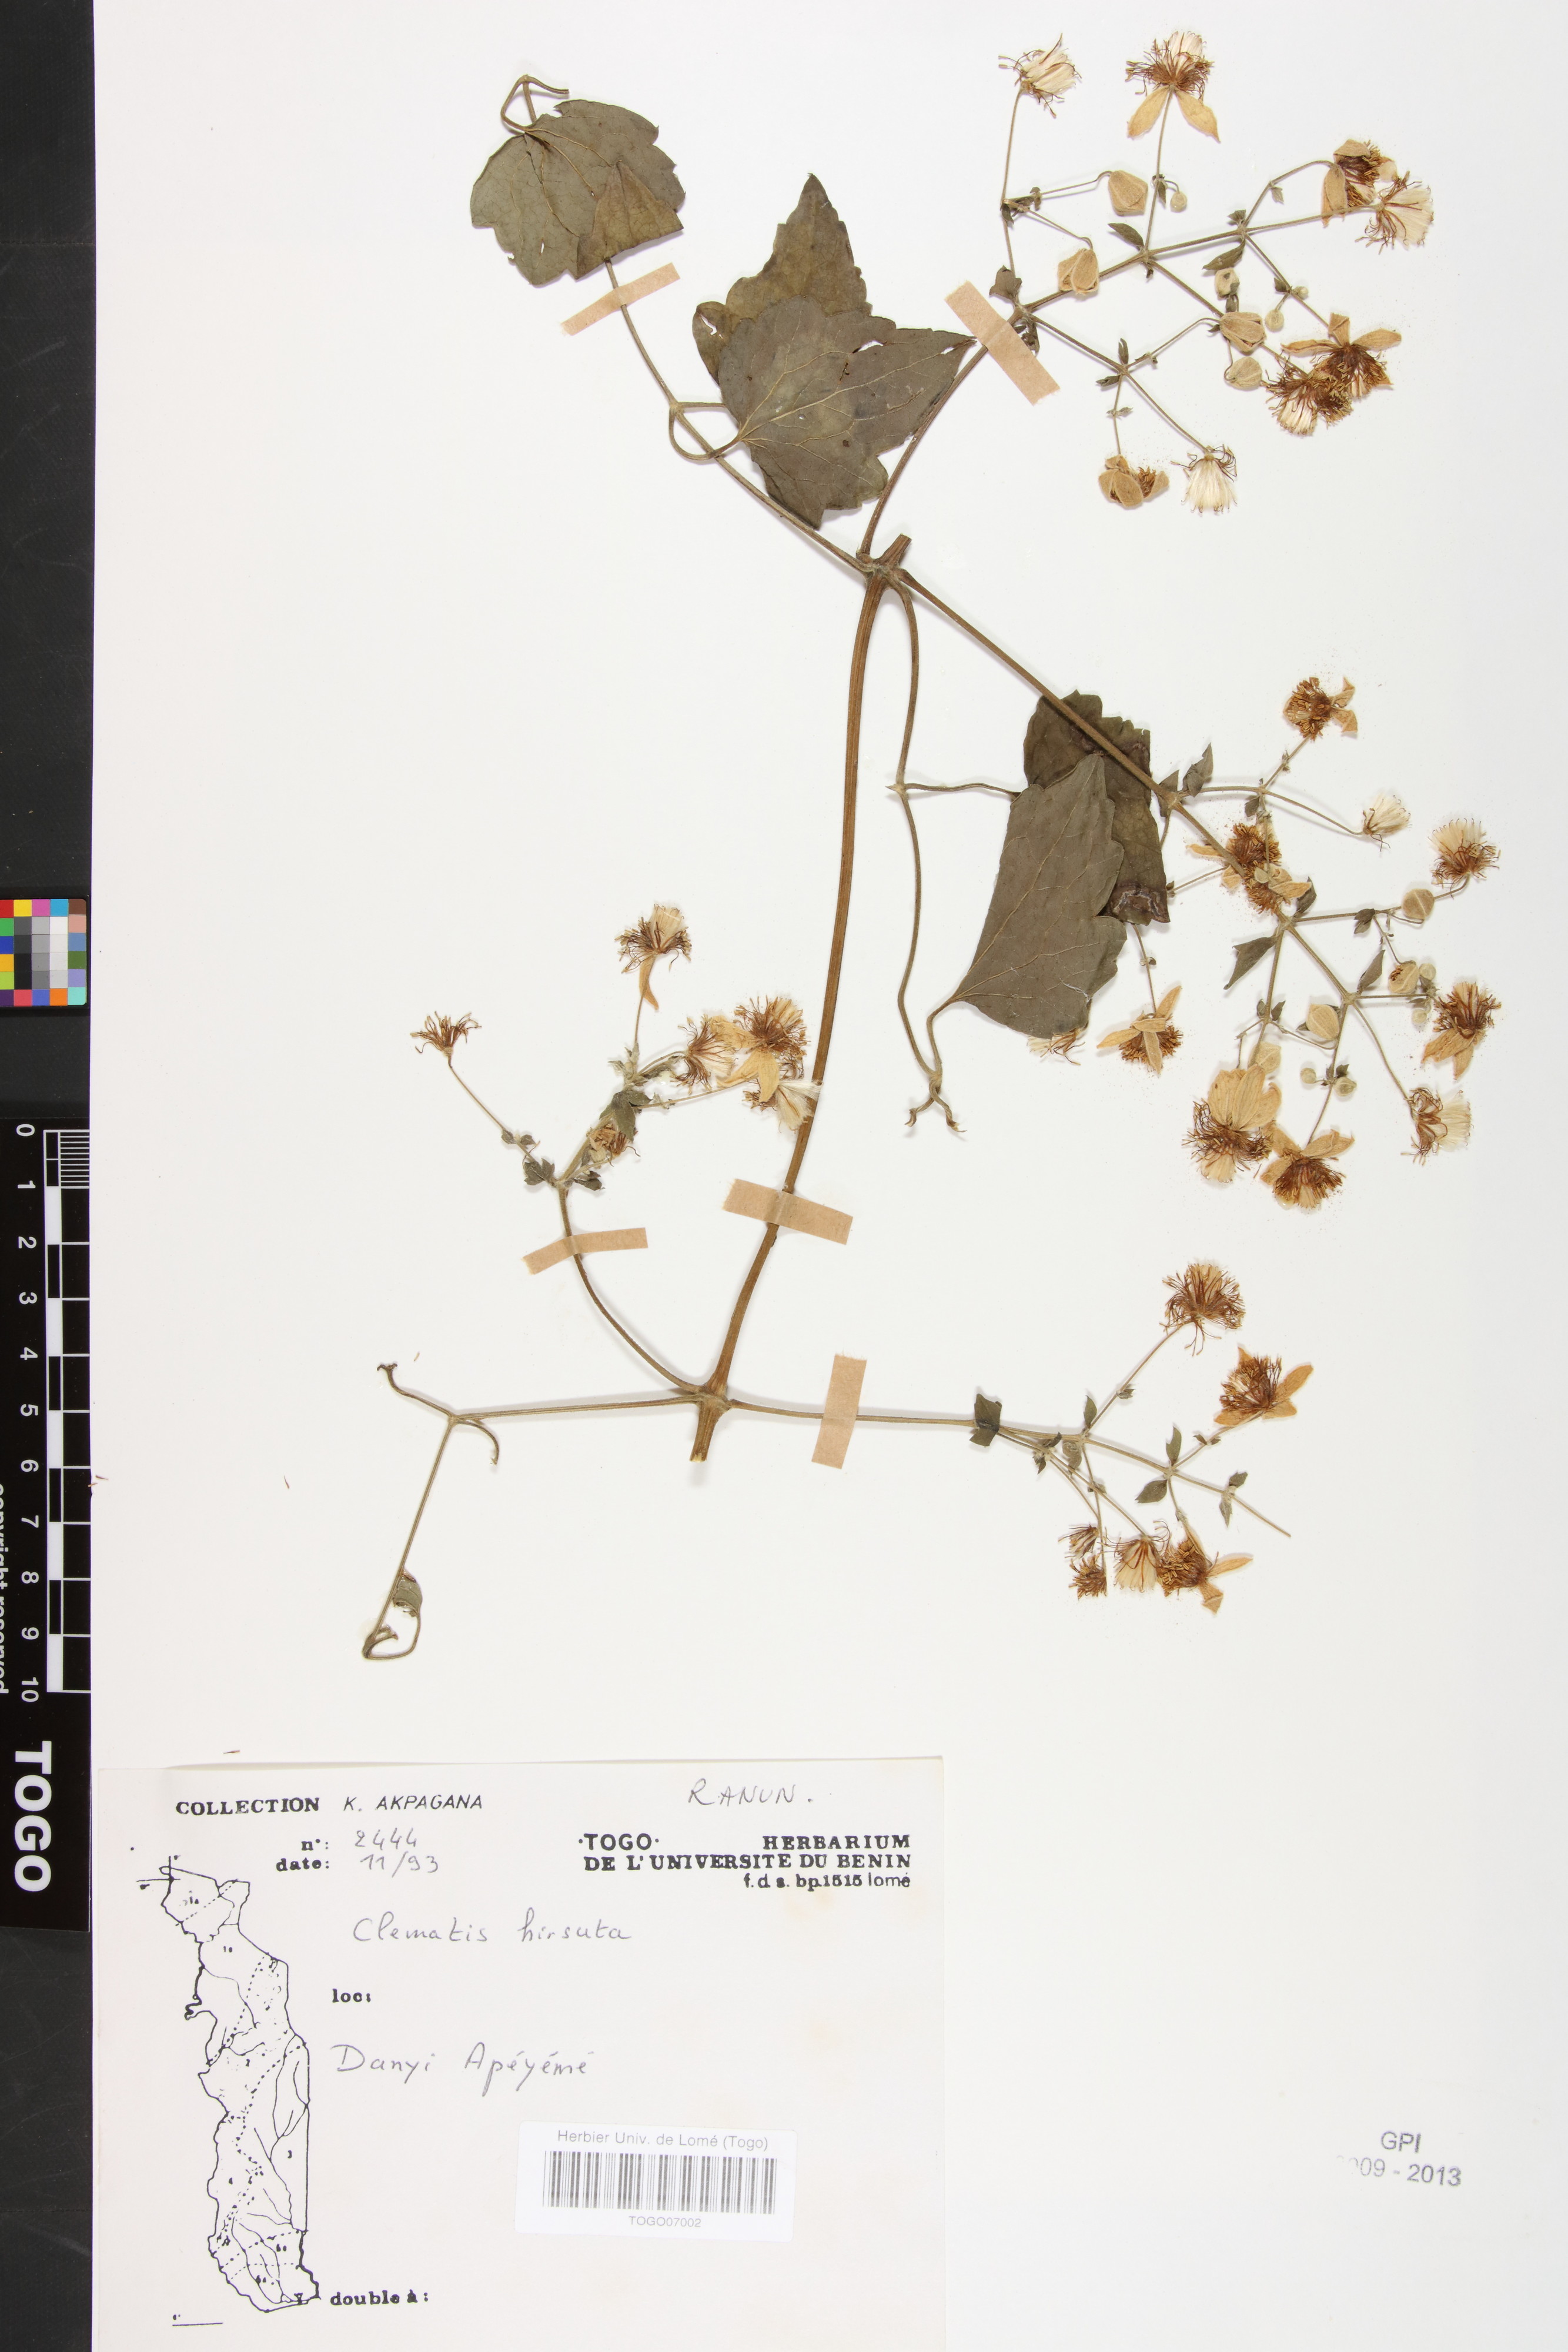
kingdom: Plantae
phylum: Tracheophyta
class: Magnoliopsida
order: Ranunculales
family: Ranunculaceae
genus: Clematis
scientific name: Clematis hirsuta
